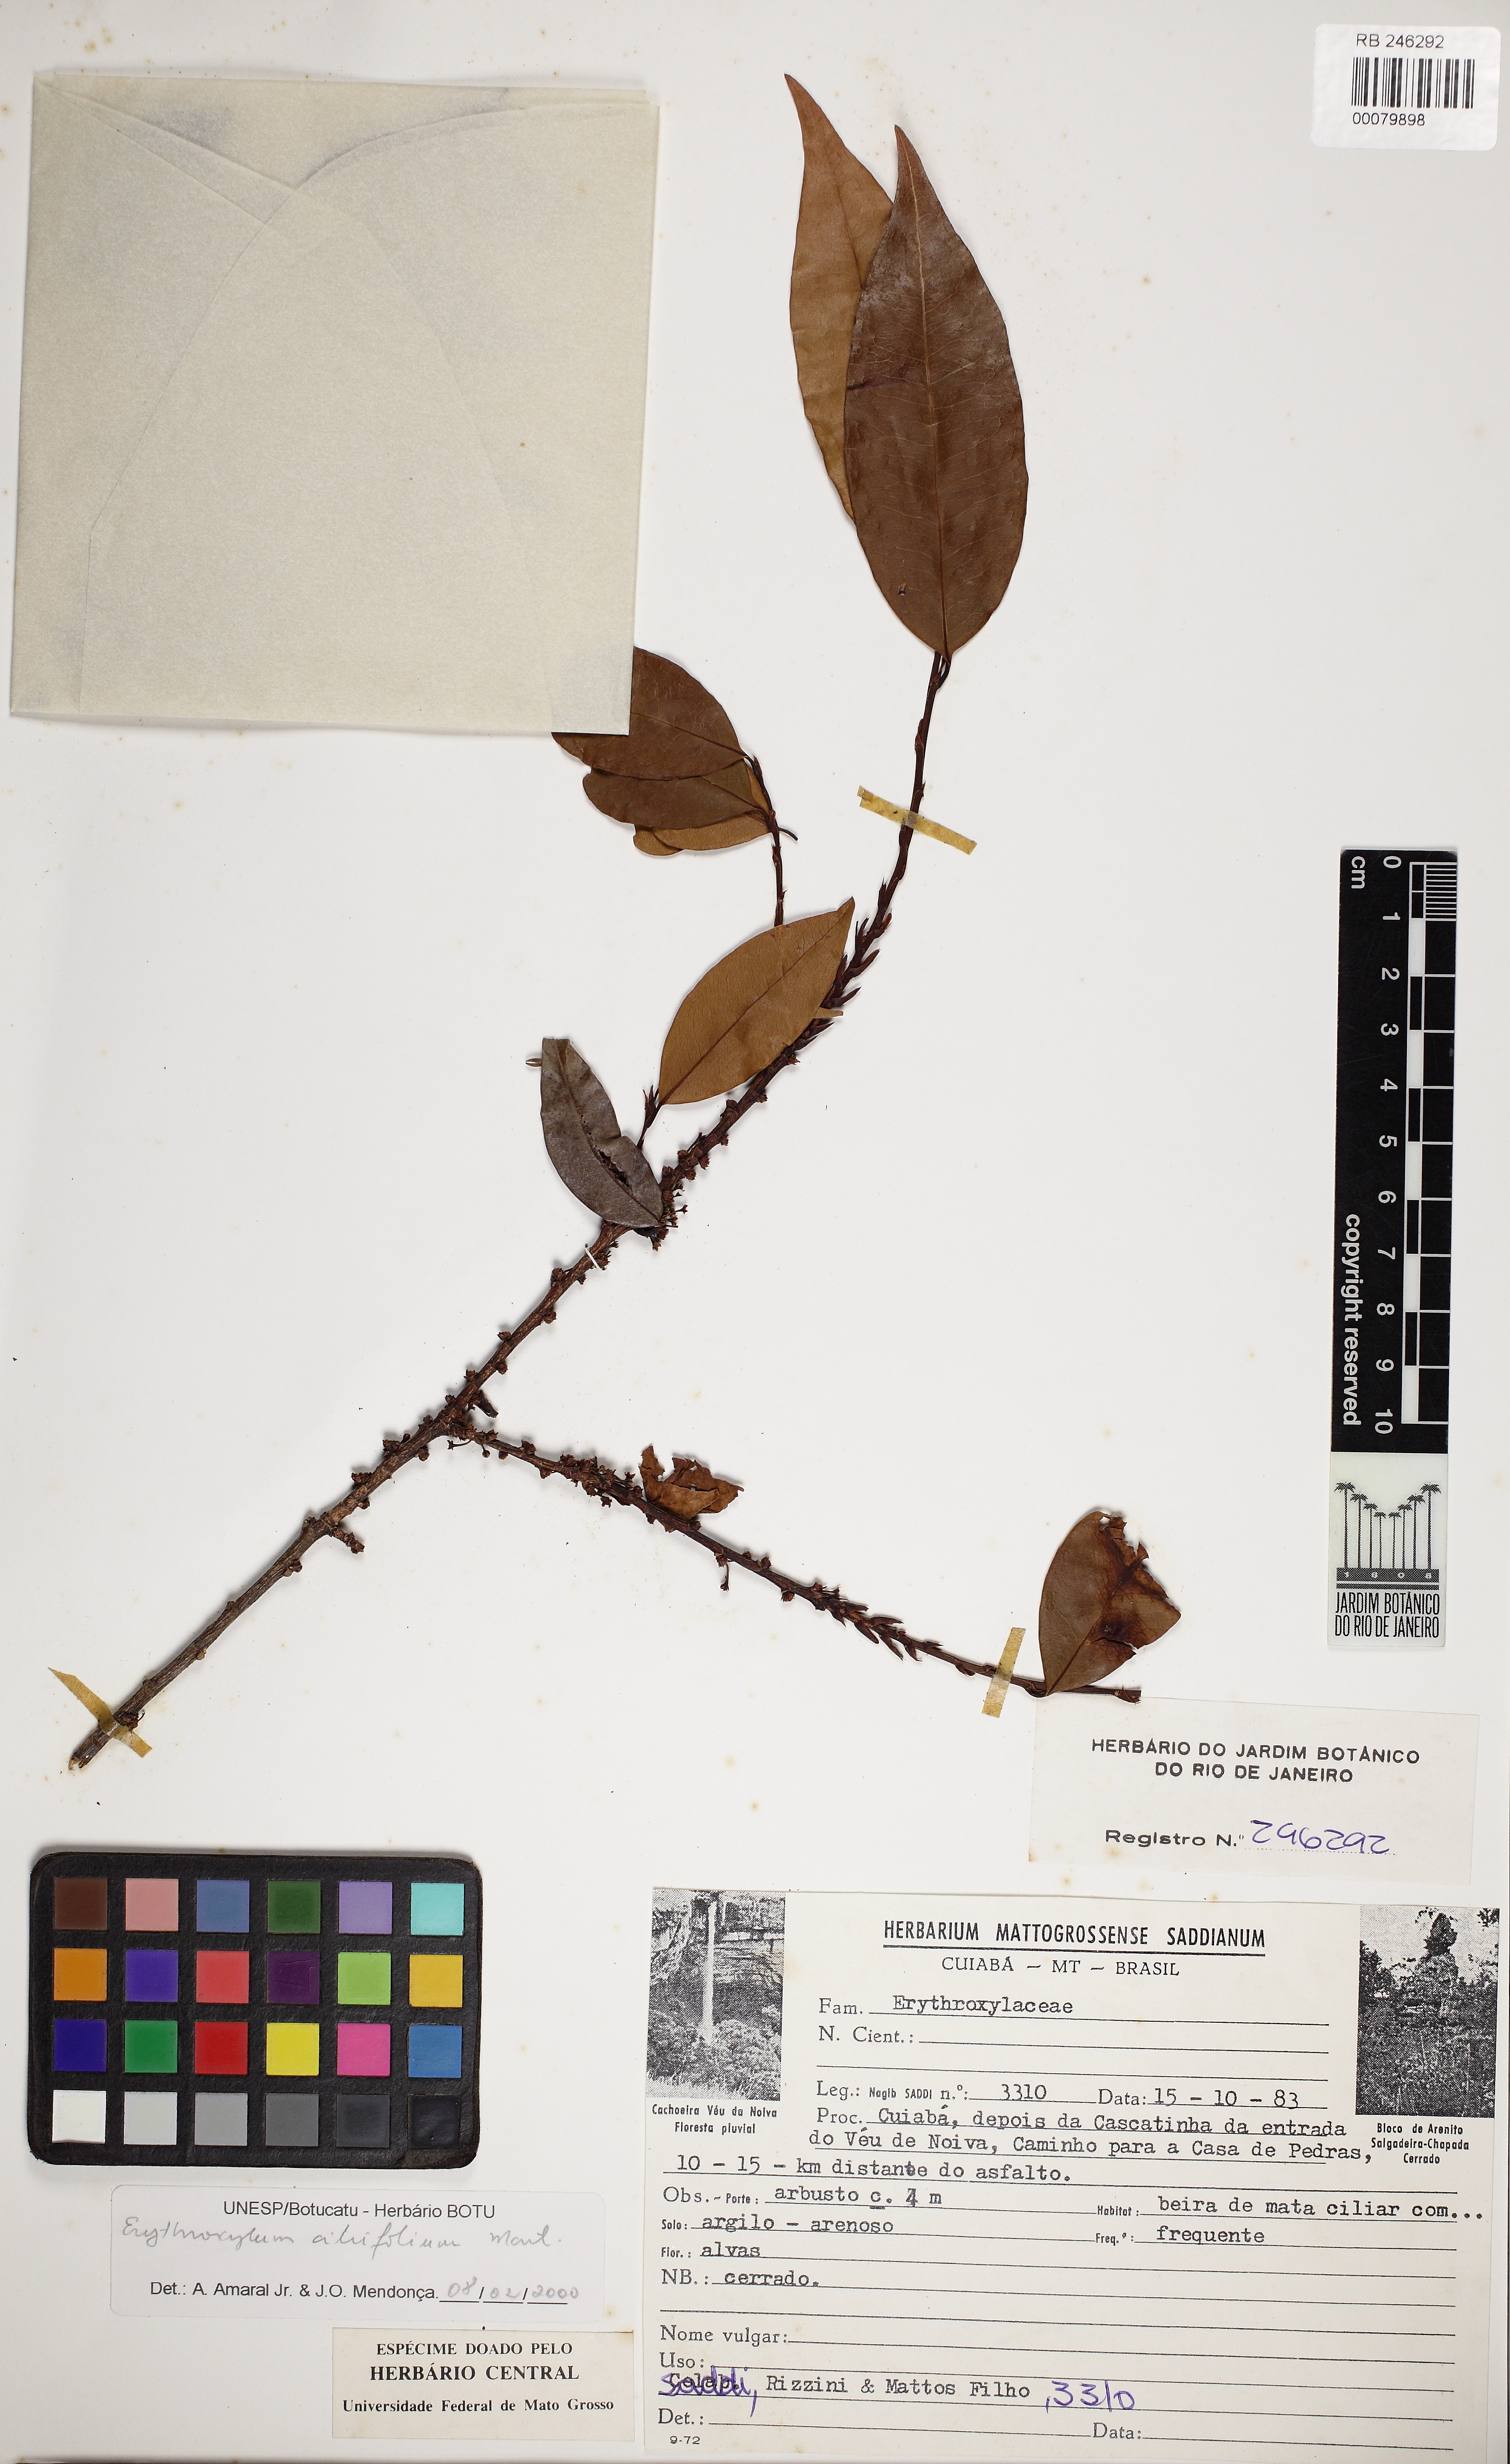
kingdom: Plantae
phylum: Tracheophyta
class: Magnoliopsida
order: Malpighiales
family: Erythroxylaceae
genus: Erythroxylum
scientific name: Erythroxylum citrifolium
